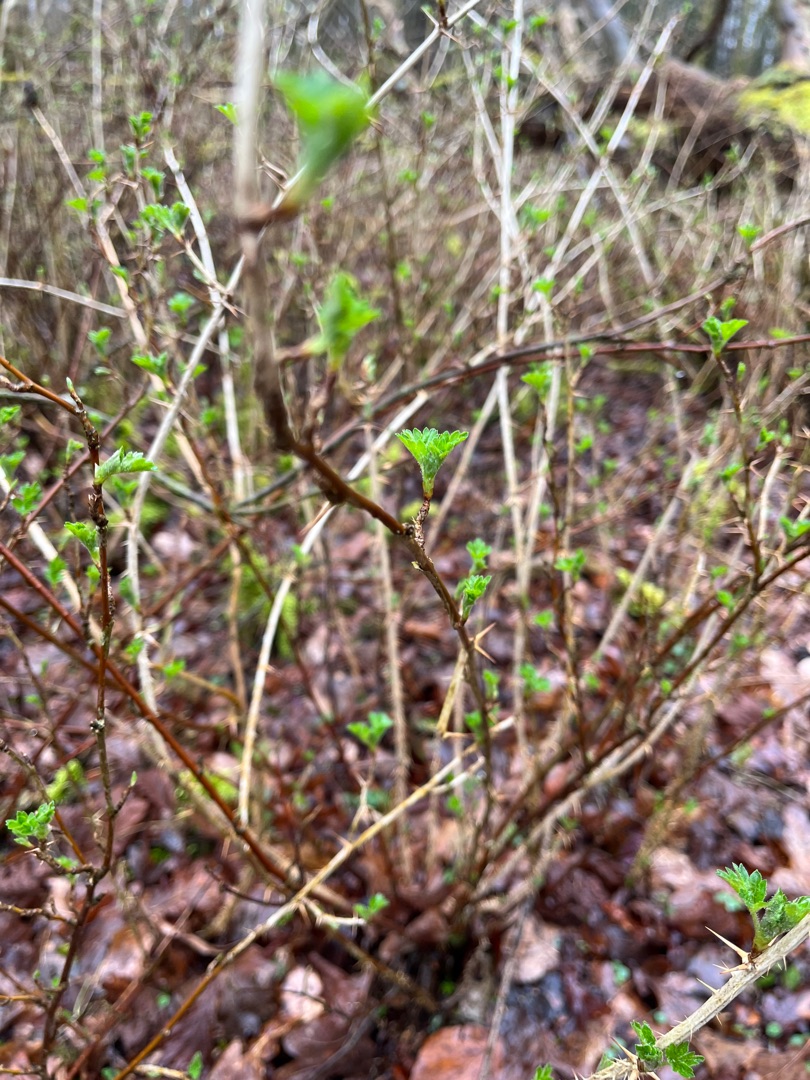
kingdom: Plantae
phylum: Tracheophyta
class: Magnoliopsida
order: Saxifragales
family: Grossulariaceae
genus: Ribes
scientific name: Ribes uva-crispa
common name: Stikkelsbær
